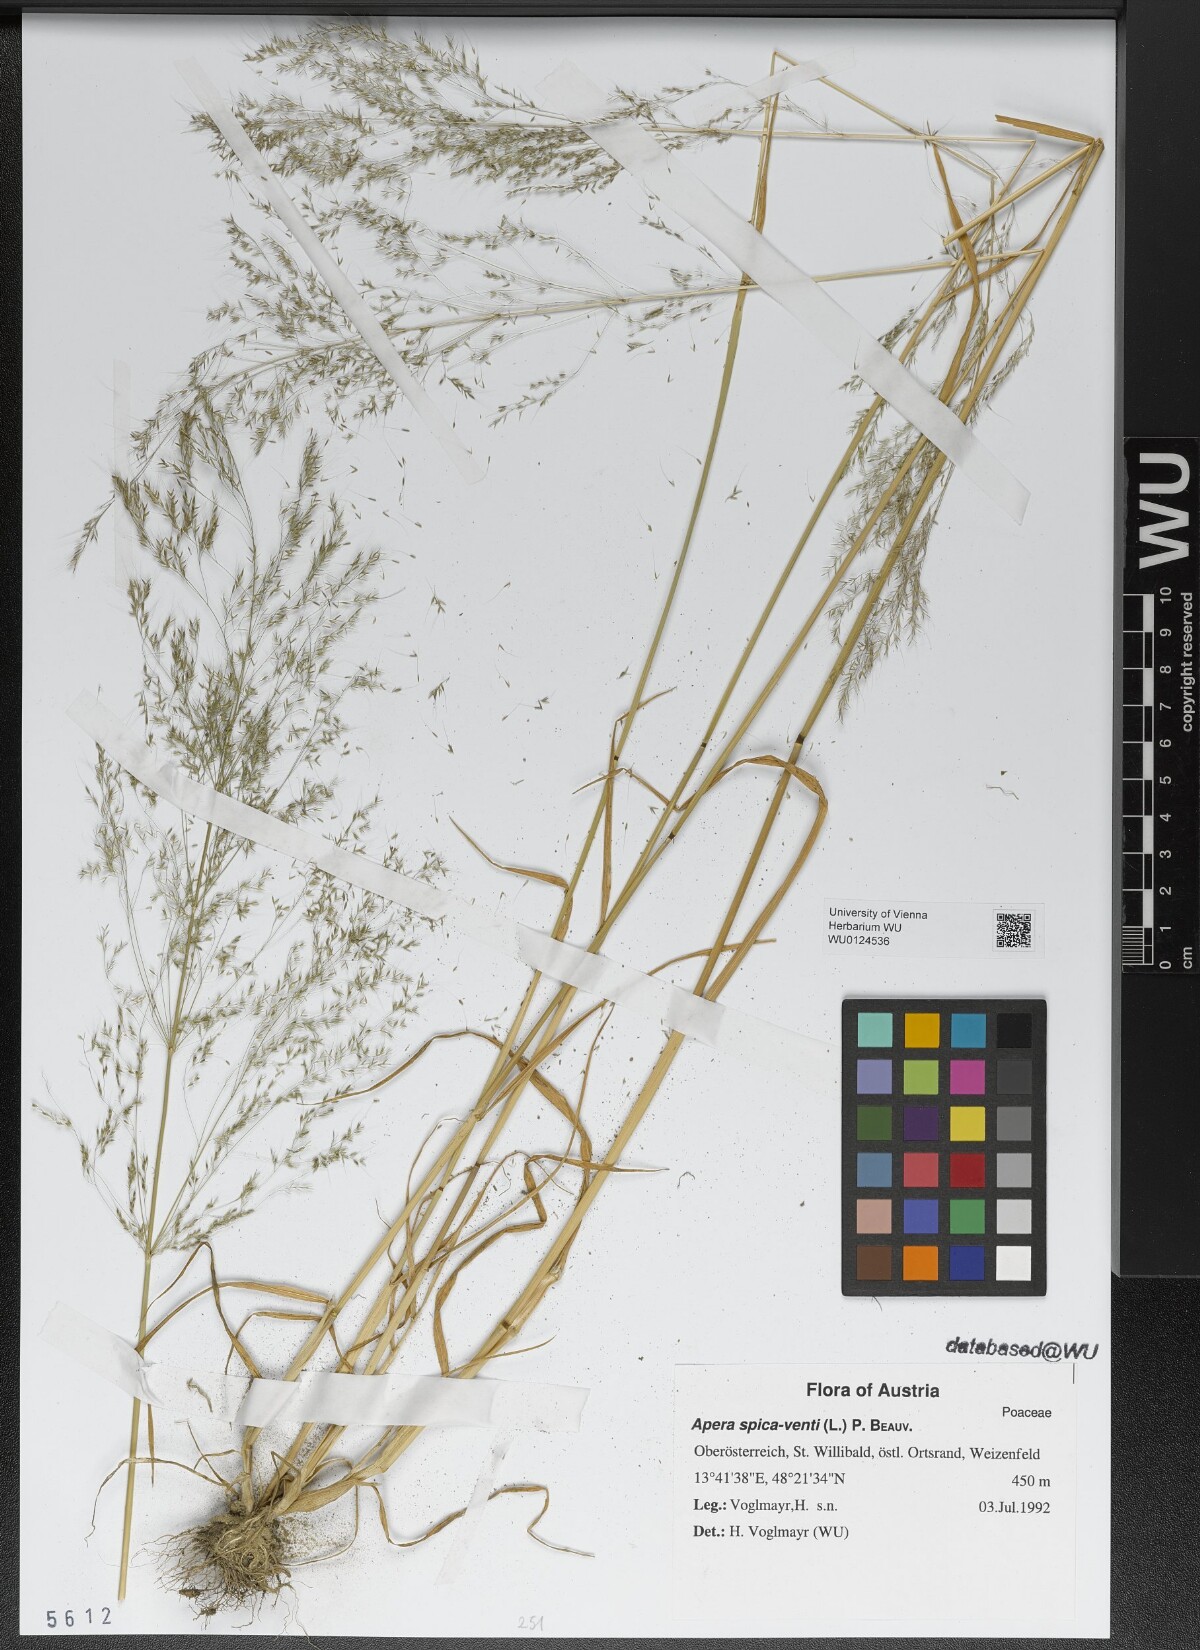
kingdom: Plantae
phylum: Tracheophyta
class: Liliopsida
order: Poales
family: Poaceae
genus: Apera
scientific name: Apera spica-venti
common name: Loose silky-bent
